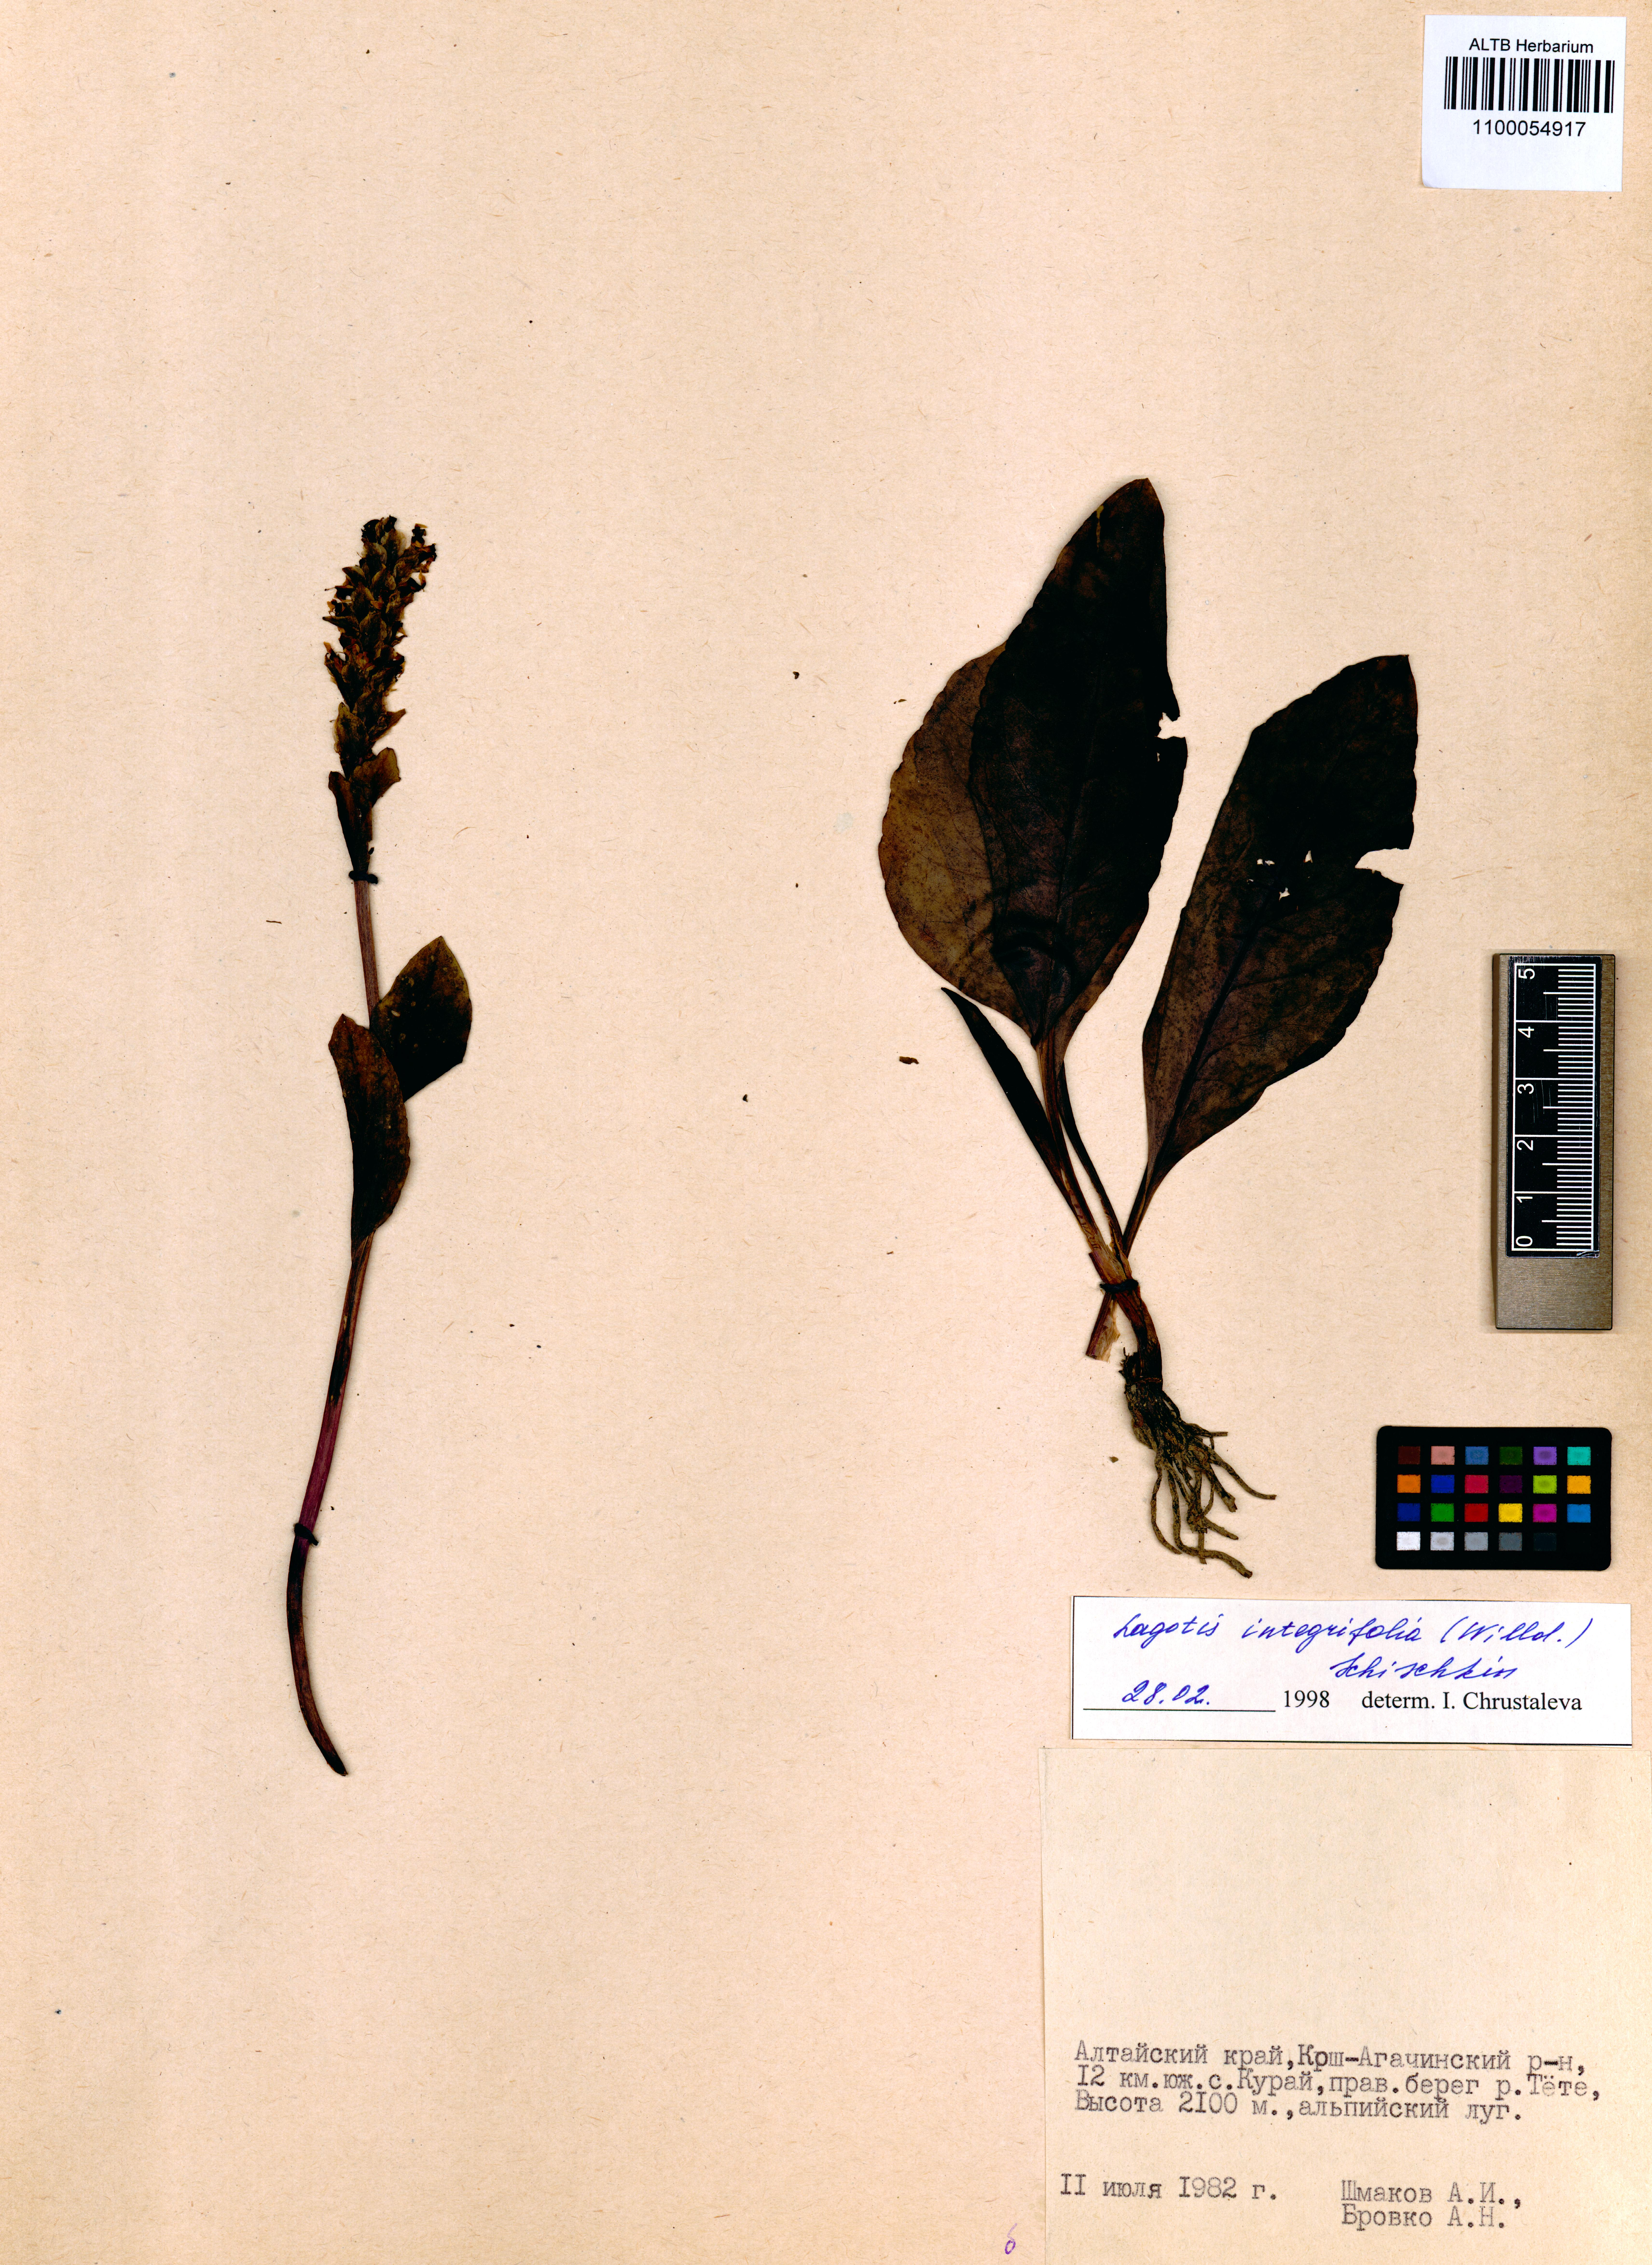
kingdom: Plantae
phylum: Tracheophyta
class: Magnoliopsida
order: Lamiales
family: Plantaginaceae
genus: Lagotis
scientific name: Lagotis integrifolia
